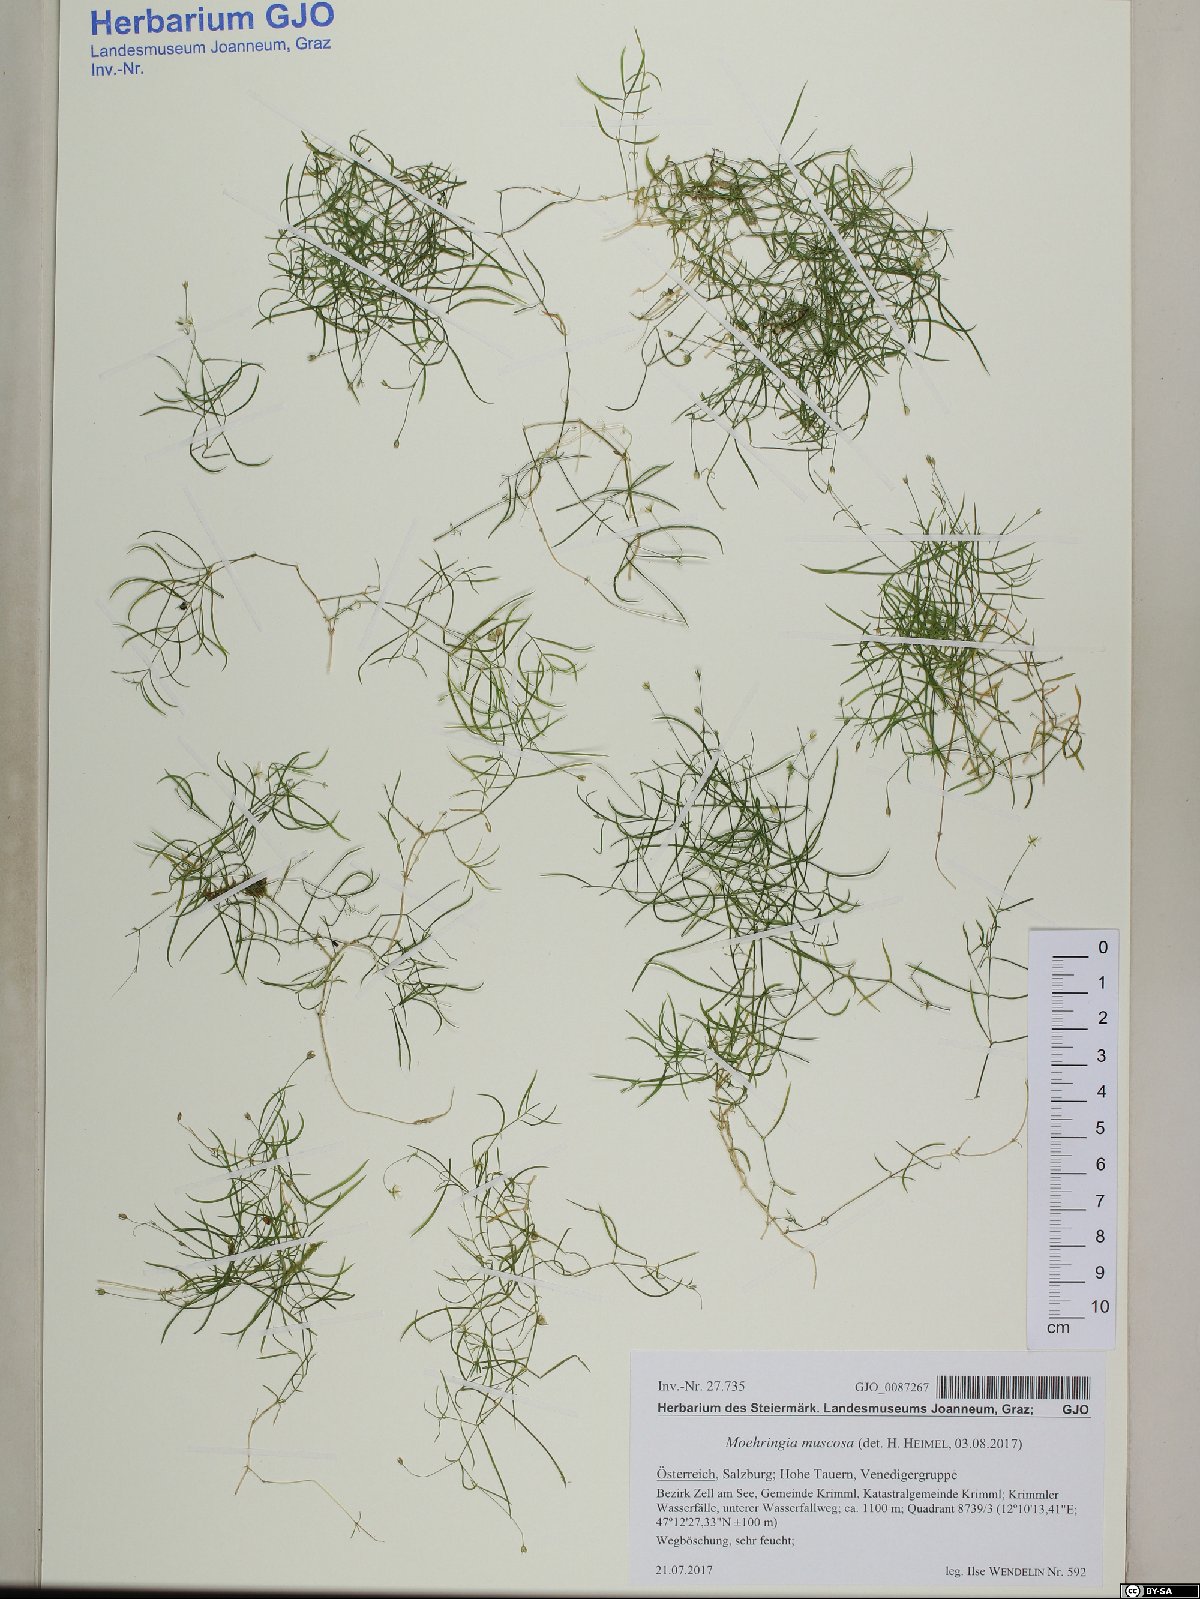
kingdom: Plantae
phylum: Tracheophyta
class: Magnoliopsida
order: Caryophyllales
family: Caryophyllaceae
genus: Moehringia
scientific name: Moehringia muscosa
